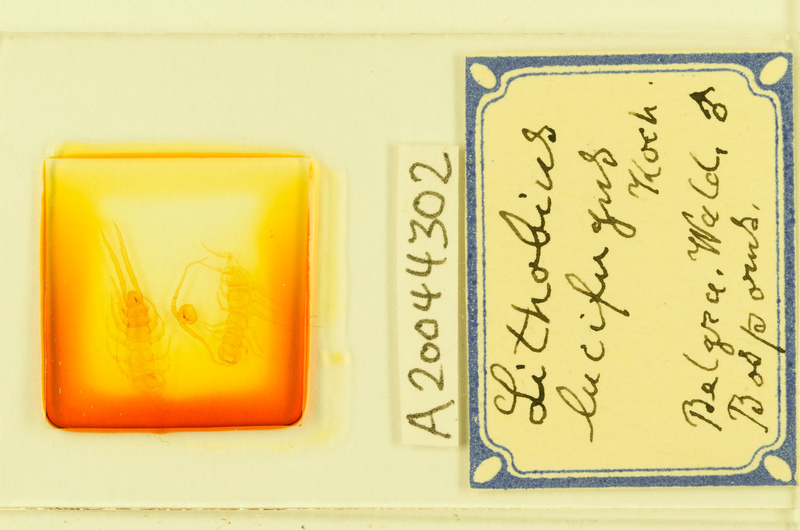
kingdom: Animalia
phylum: Arthropoda
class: Chilopoda
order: Lithobiomorpha
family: Lithobiidae
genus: Lithobius
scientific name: Lithobius lucifugus
